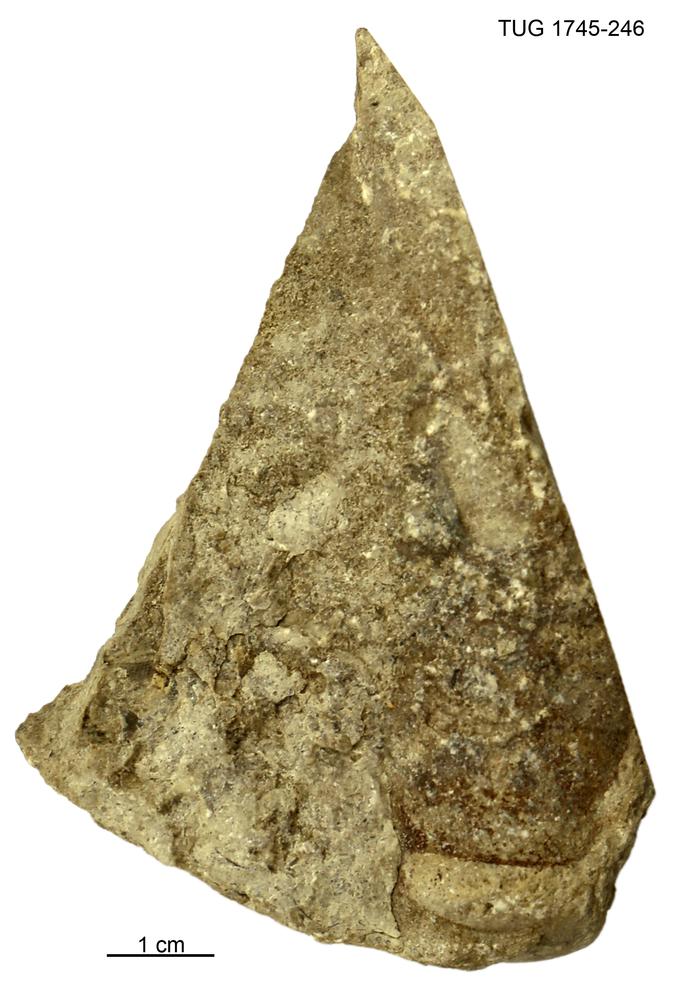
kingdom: Animalia
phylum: Mollusca
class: Cephalopoda
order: Orthocerida
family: Orthoceratidae
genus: Orthoceras
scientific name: Orthoceras
